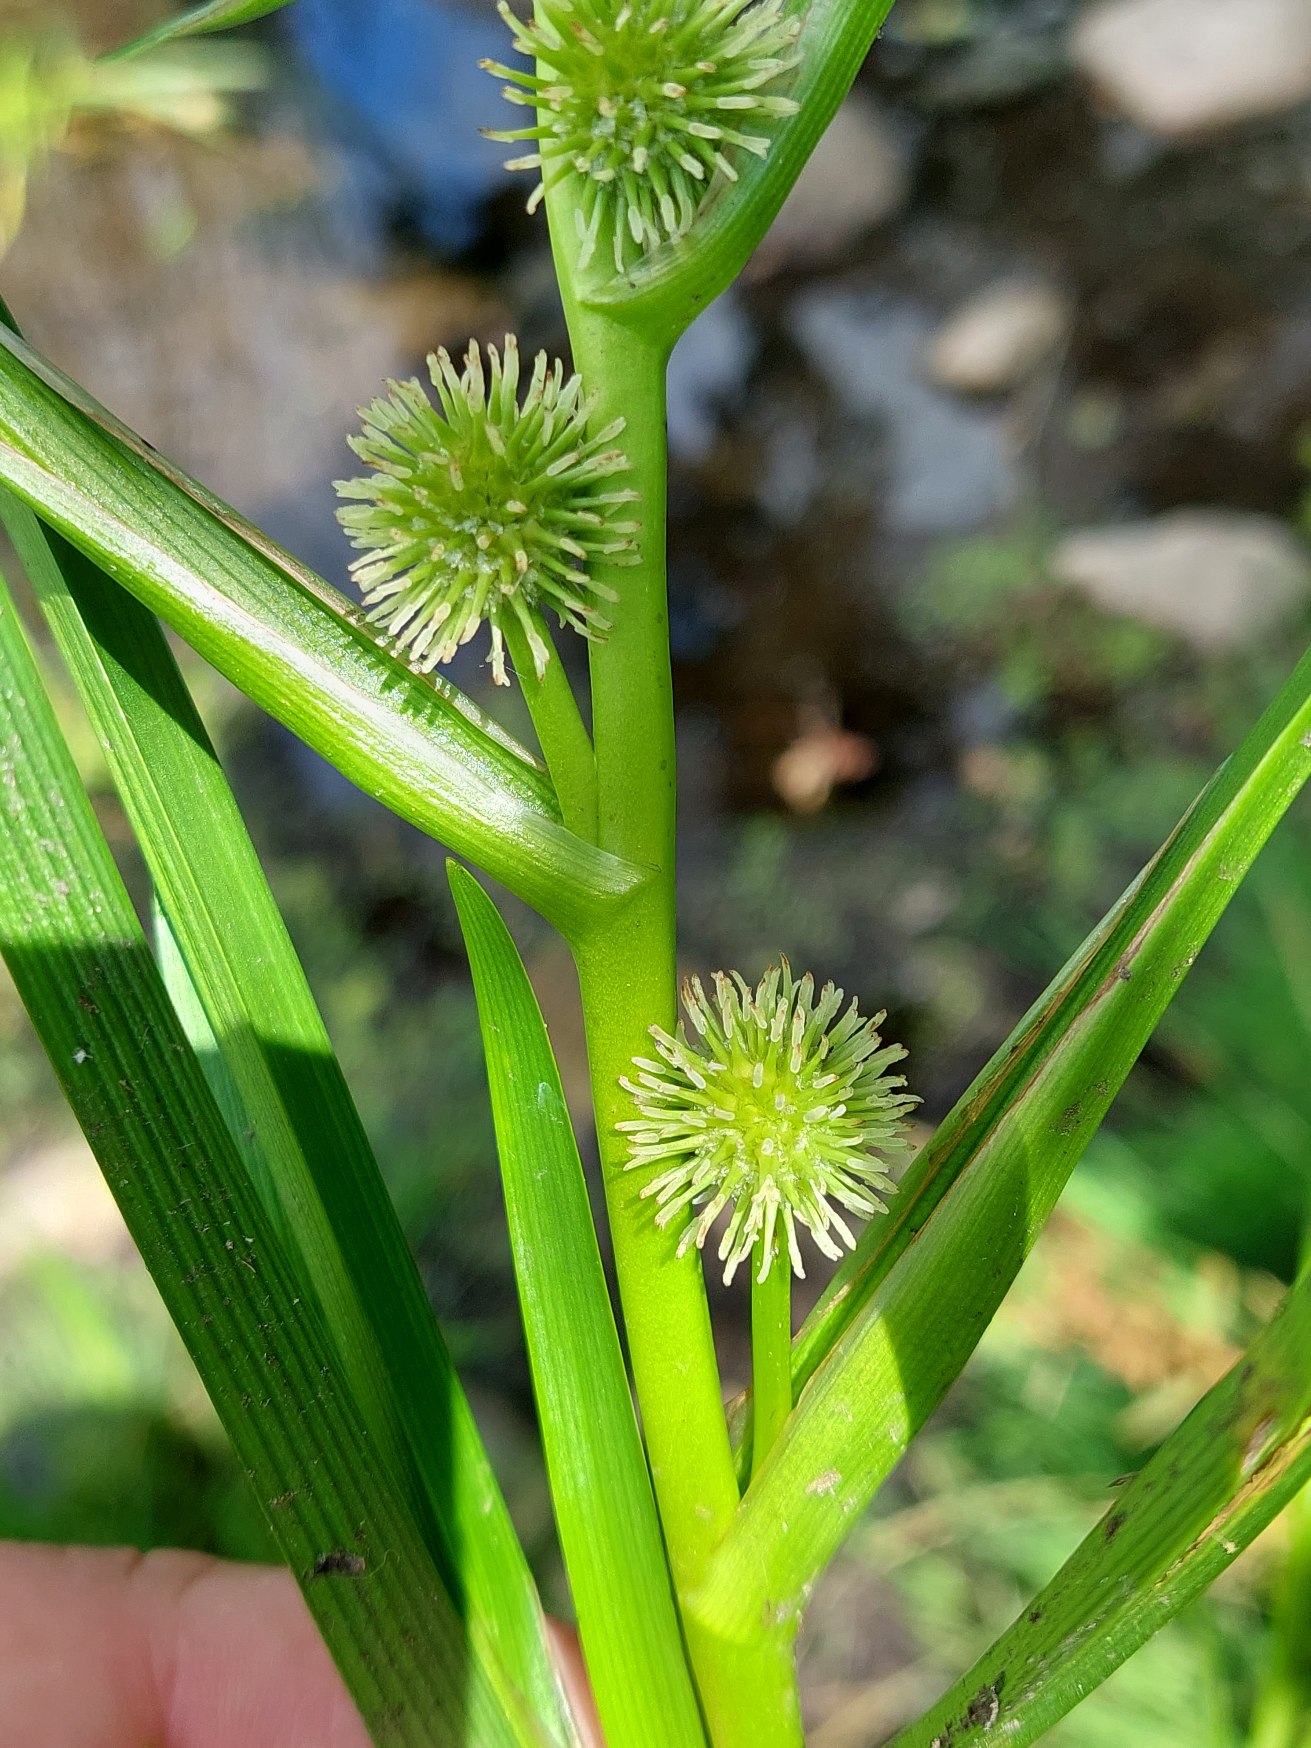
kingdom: Plantae
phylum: Tracheophyta
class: Liliopsida
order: Poales
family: Typhaceae
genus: Sparganium
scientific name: Sparganium emersum
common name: Enkelt pindsvineknop
